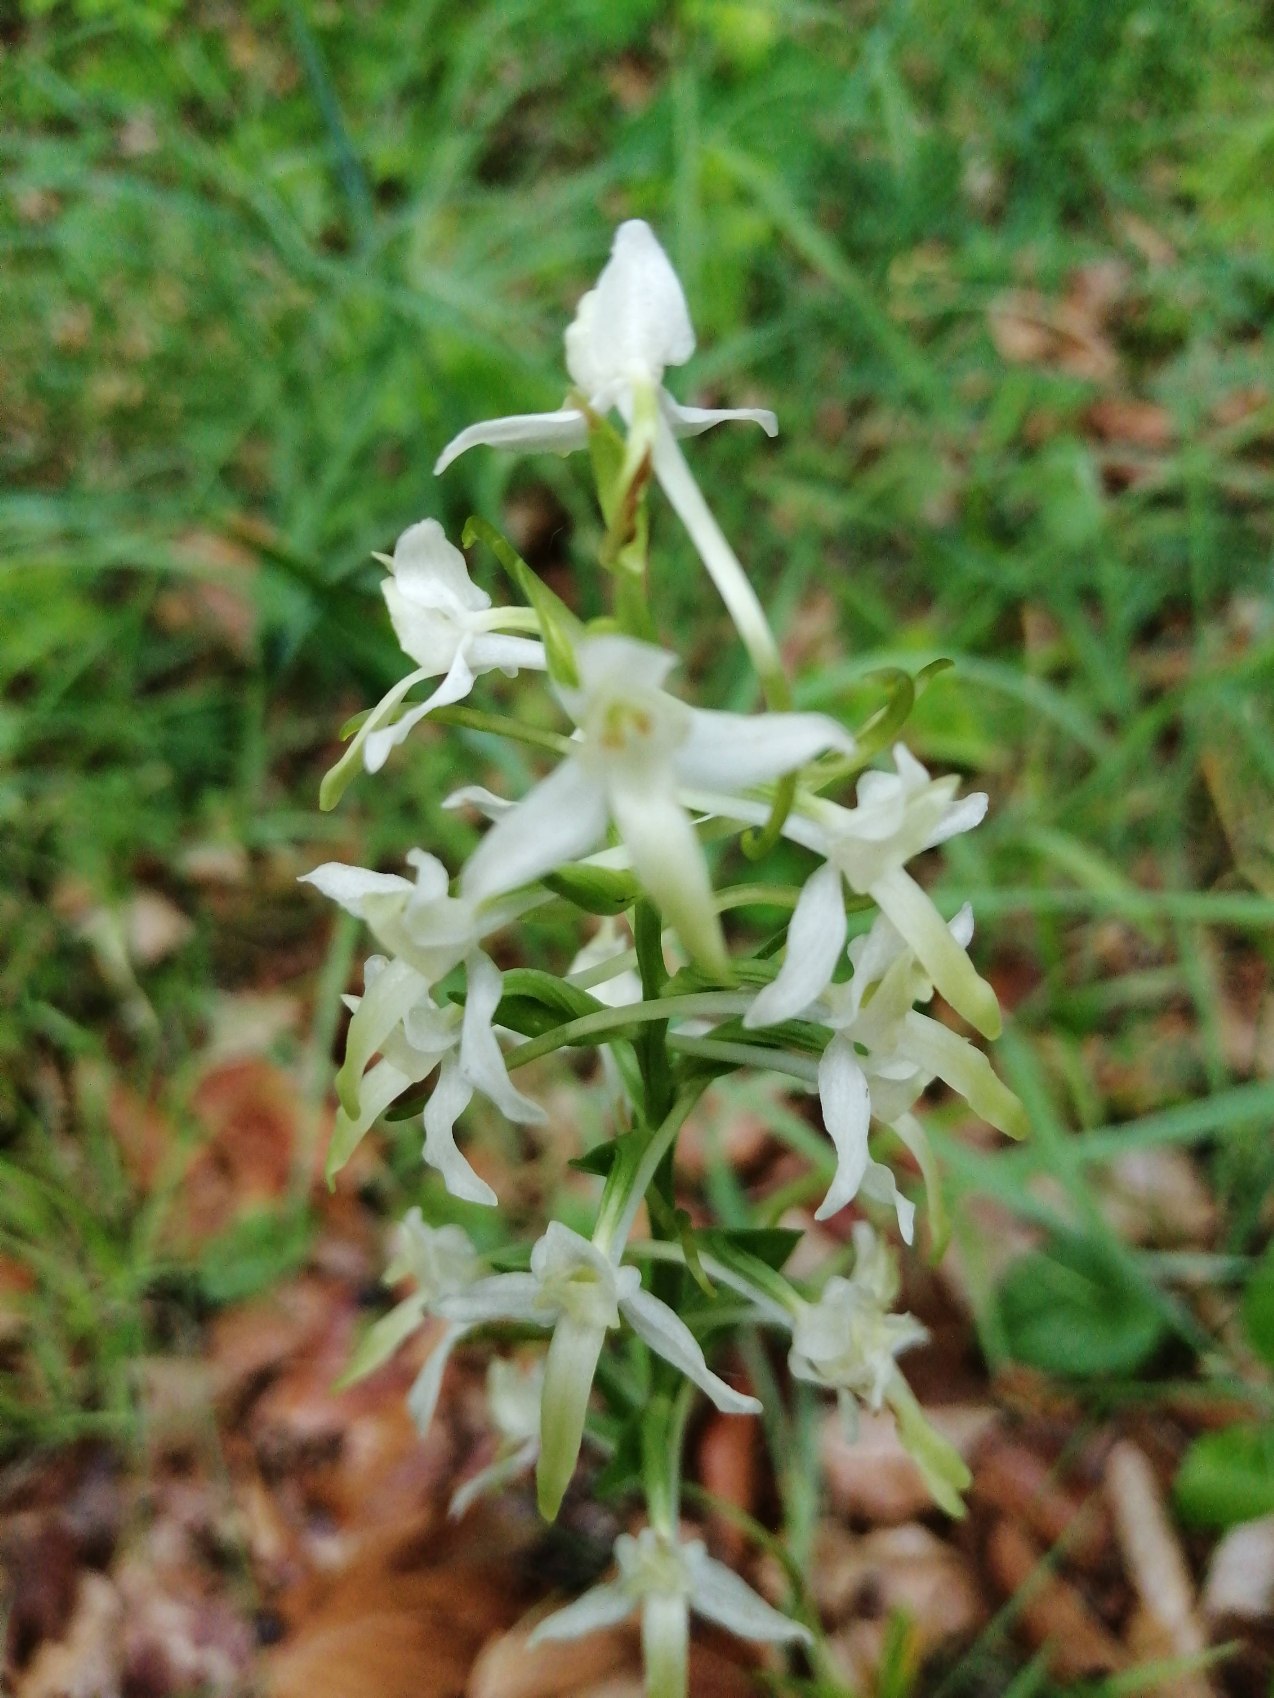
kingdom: Plantae
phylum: Tracheophyta
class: Liliopsida
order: Asparagales
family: Orchidaceae
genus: Platanthera
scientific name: Platanthera bifolia
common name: Langsporet gøgelilje
